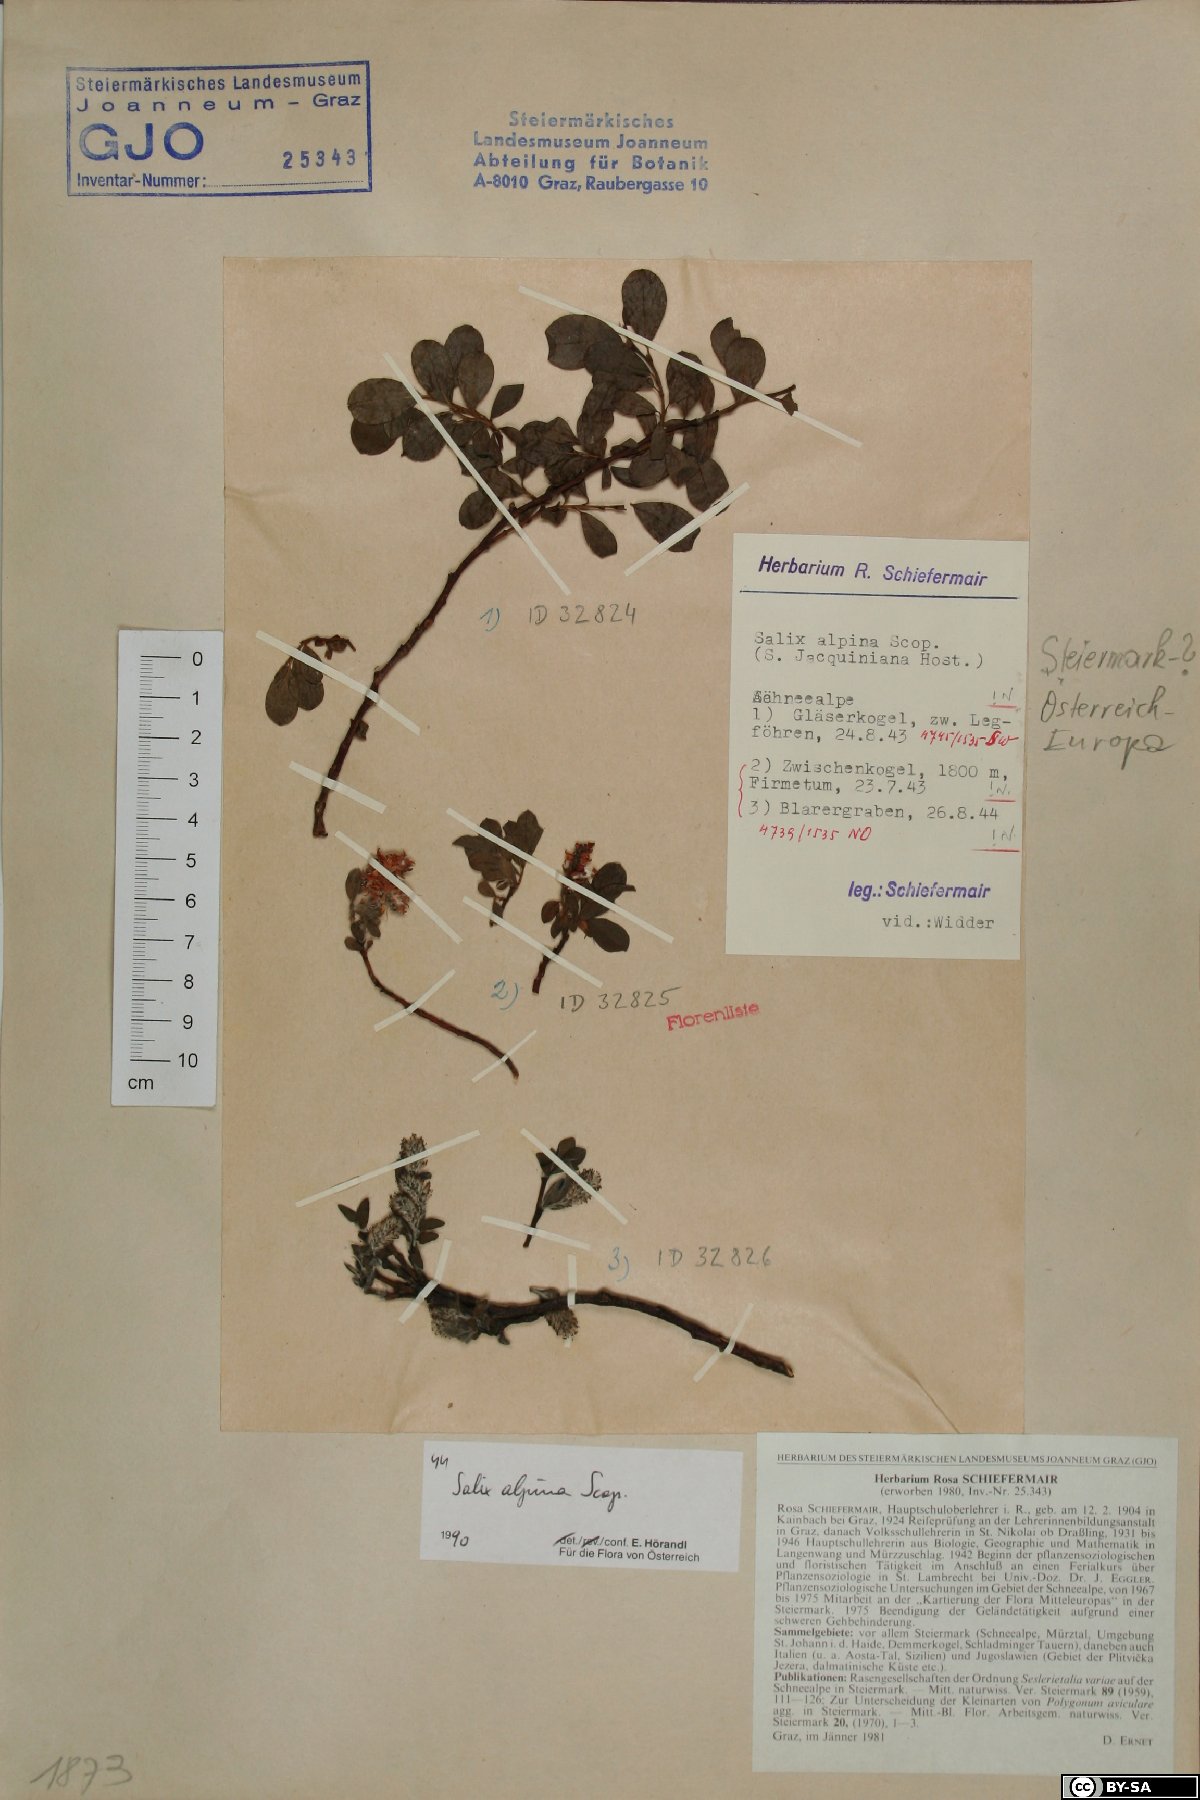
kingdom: Plantae
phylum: Tracheophyta
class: Magnoliopsida
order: Malpighiales
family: Salicaceae
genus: Salix
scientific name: Salix alpina
